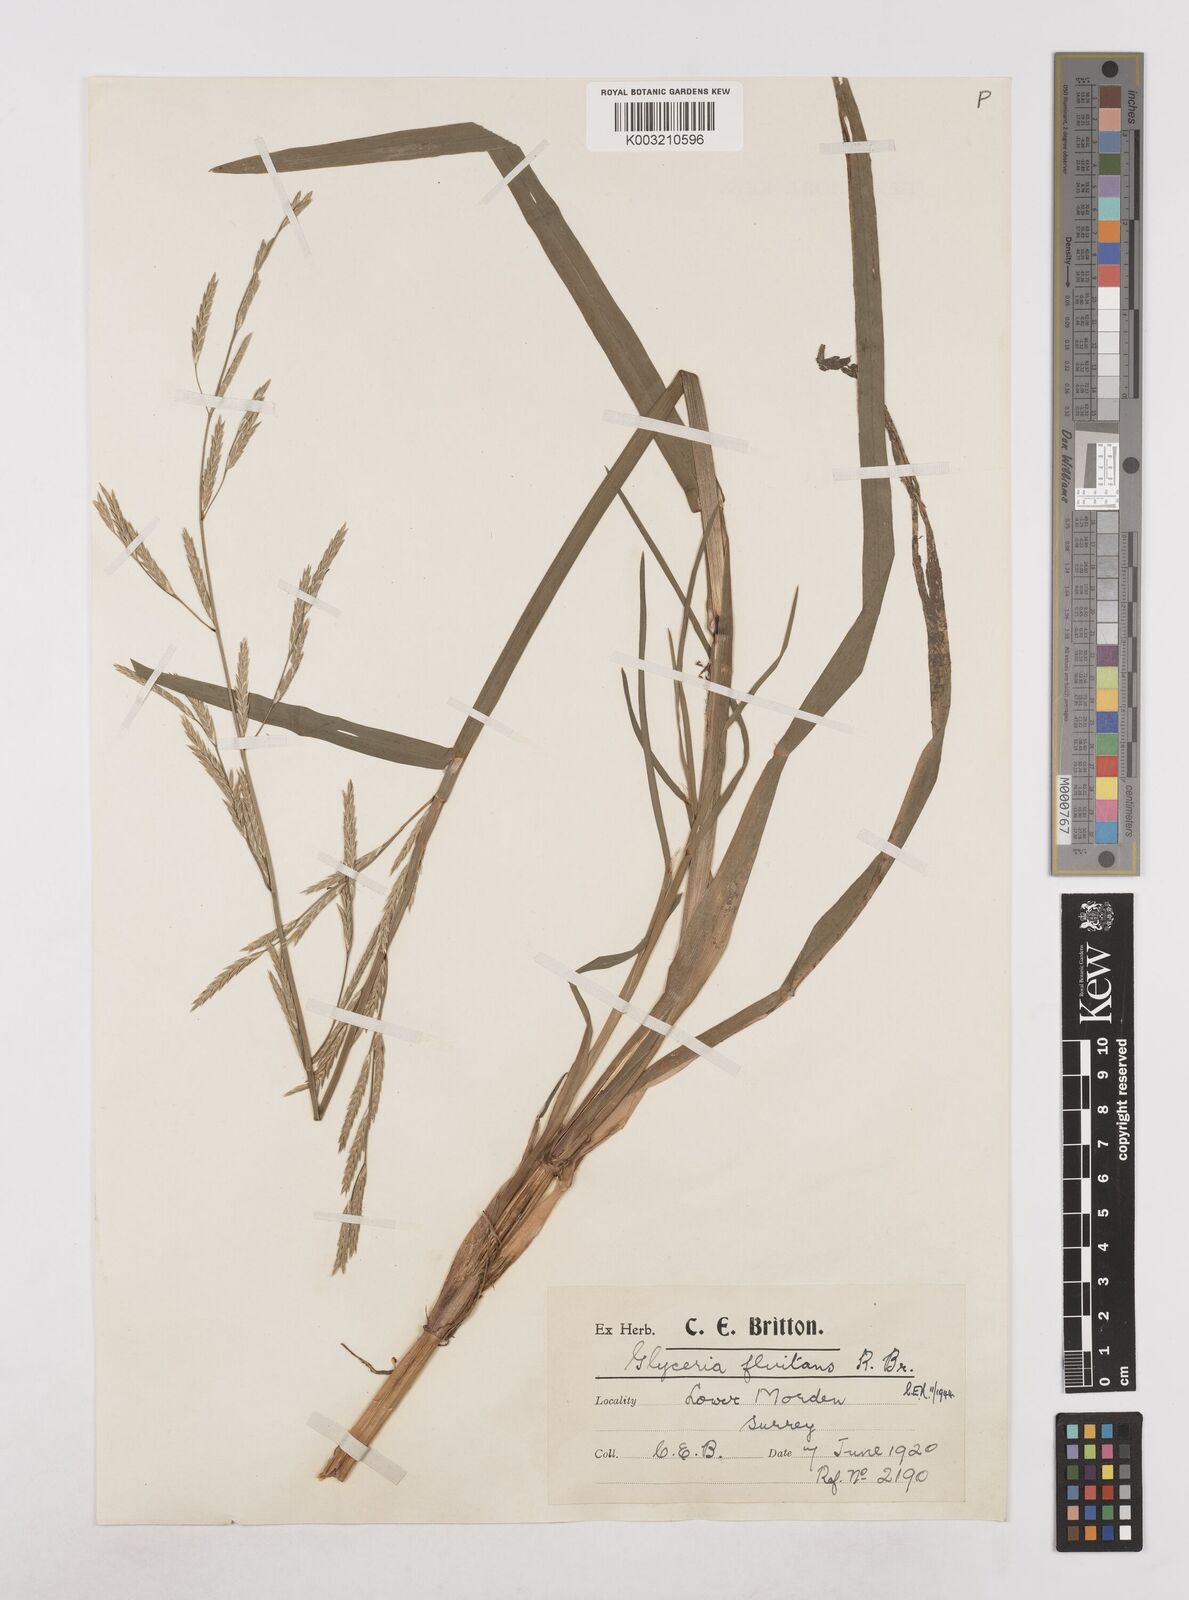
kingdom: Plantae
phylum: Tracheophyta
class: Liliopsida
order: Poales
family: Poaceae
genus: Glyceria
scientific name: Glyceria fluitans
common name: Floating sweet-grass
